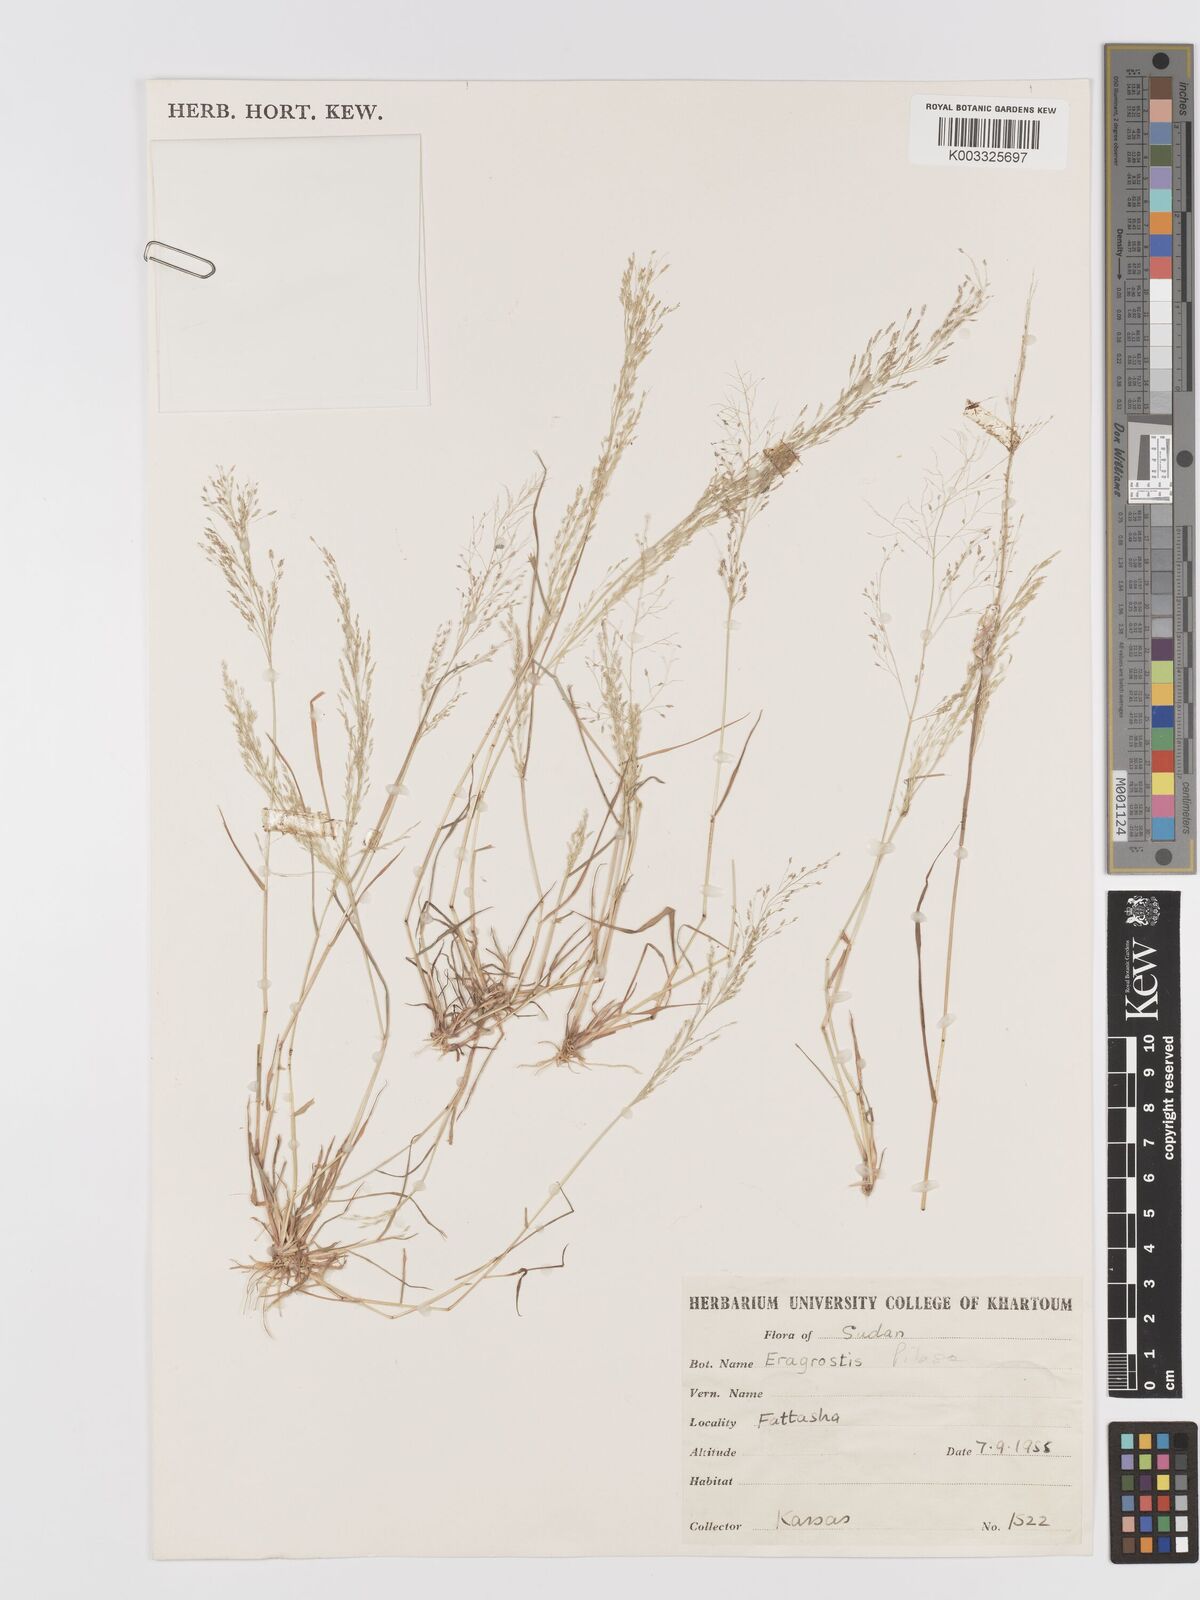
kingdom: Plantae
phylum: Tracheophyta
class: Liliopsida
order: Poales
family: Poaceae
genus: Eragrostis
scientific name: Eragrostis pilosa
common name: Indian lovegrass
